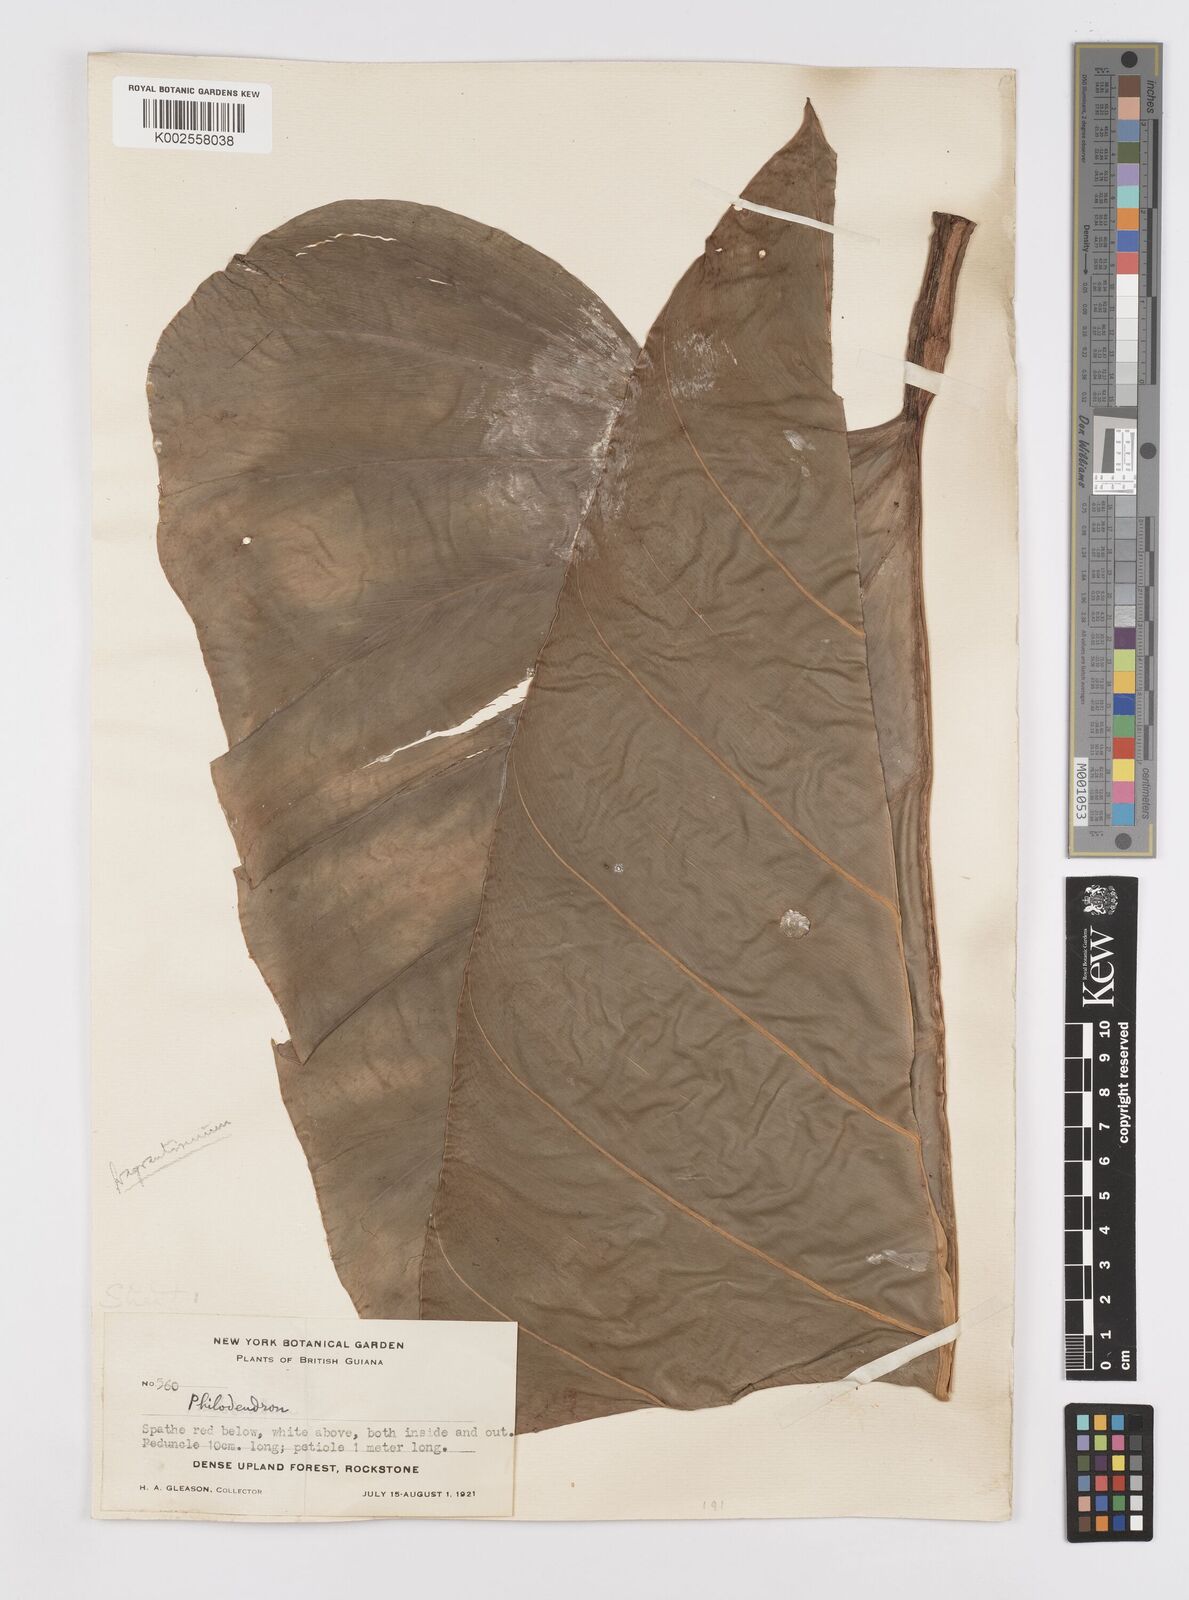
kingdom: Plantae
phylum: Tracheophyta
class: Liliopsida
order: Alismatales
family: Araceae
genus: Philodendron
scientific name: Philodendron fragrantissimum
